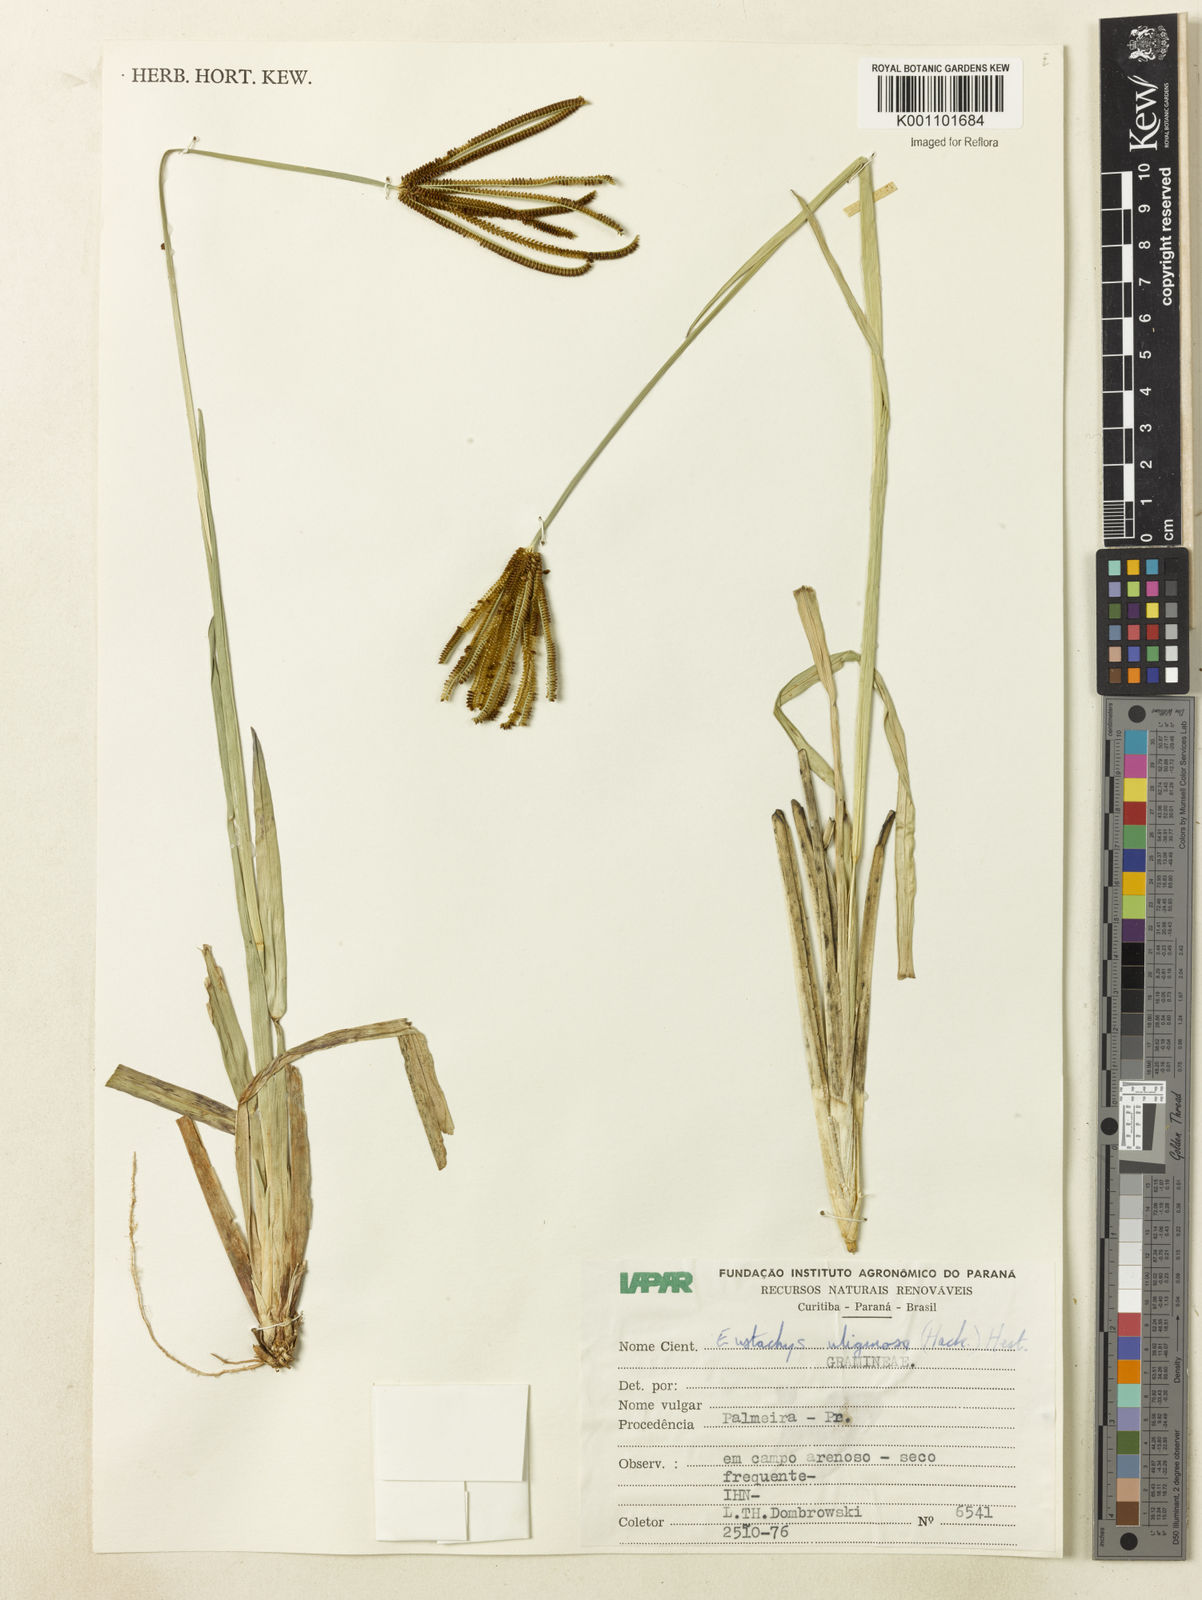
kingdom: Plantae
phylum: Tracheophyta
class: Liliopsida
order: Poales
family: Poaceae
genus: Eustachys
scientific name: Eustachys uliginosa
